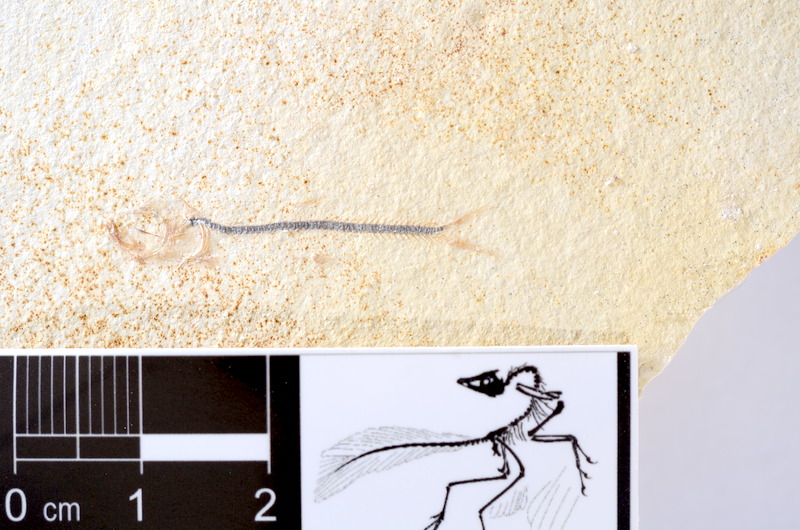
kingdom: Animalia
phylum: Chordata
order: Salmoniformes
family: Orthogonikleithridae
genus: Orthogonikleithrus
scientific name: Orthogonikleithrus hoelli
